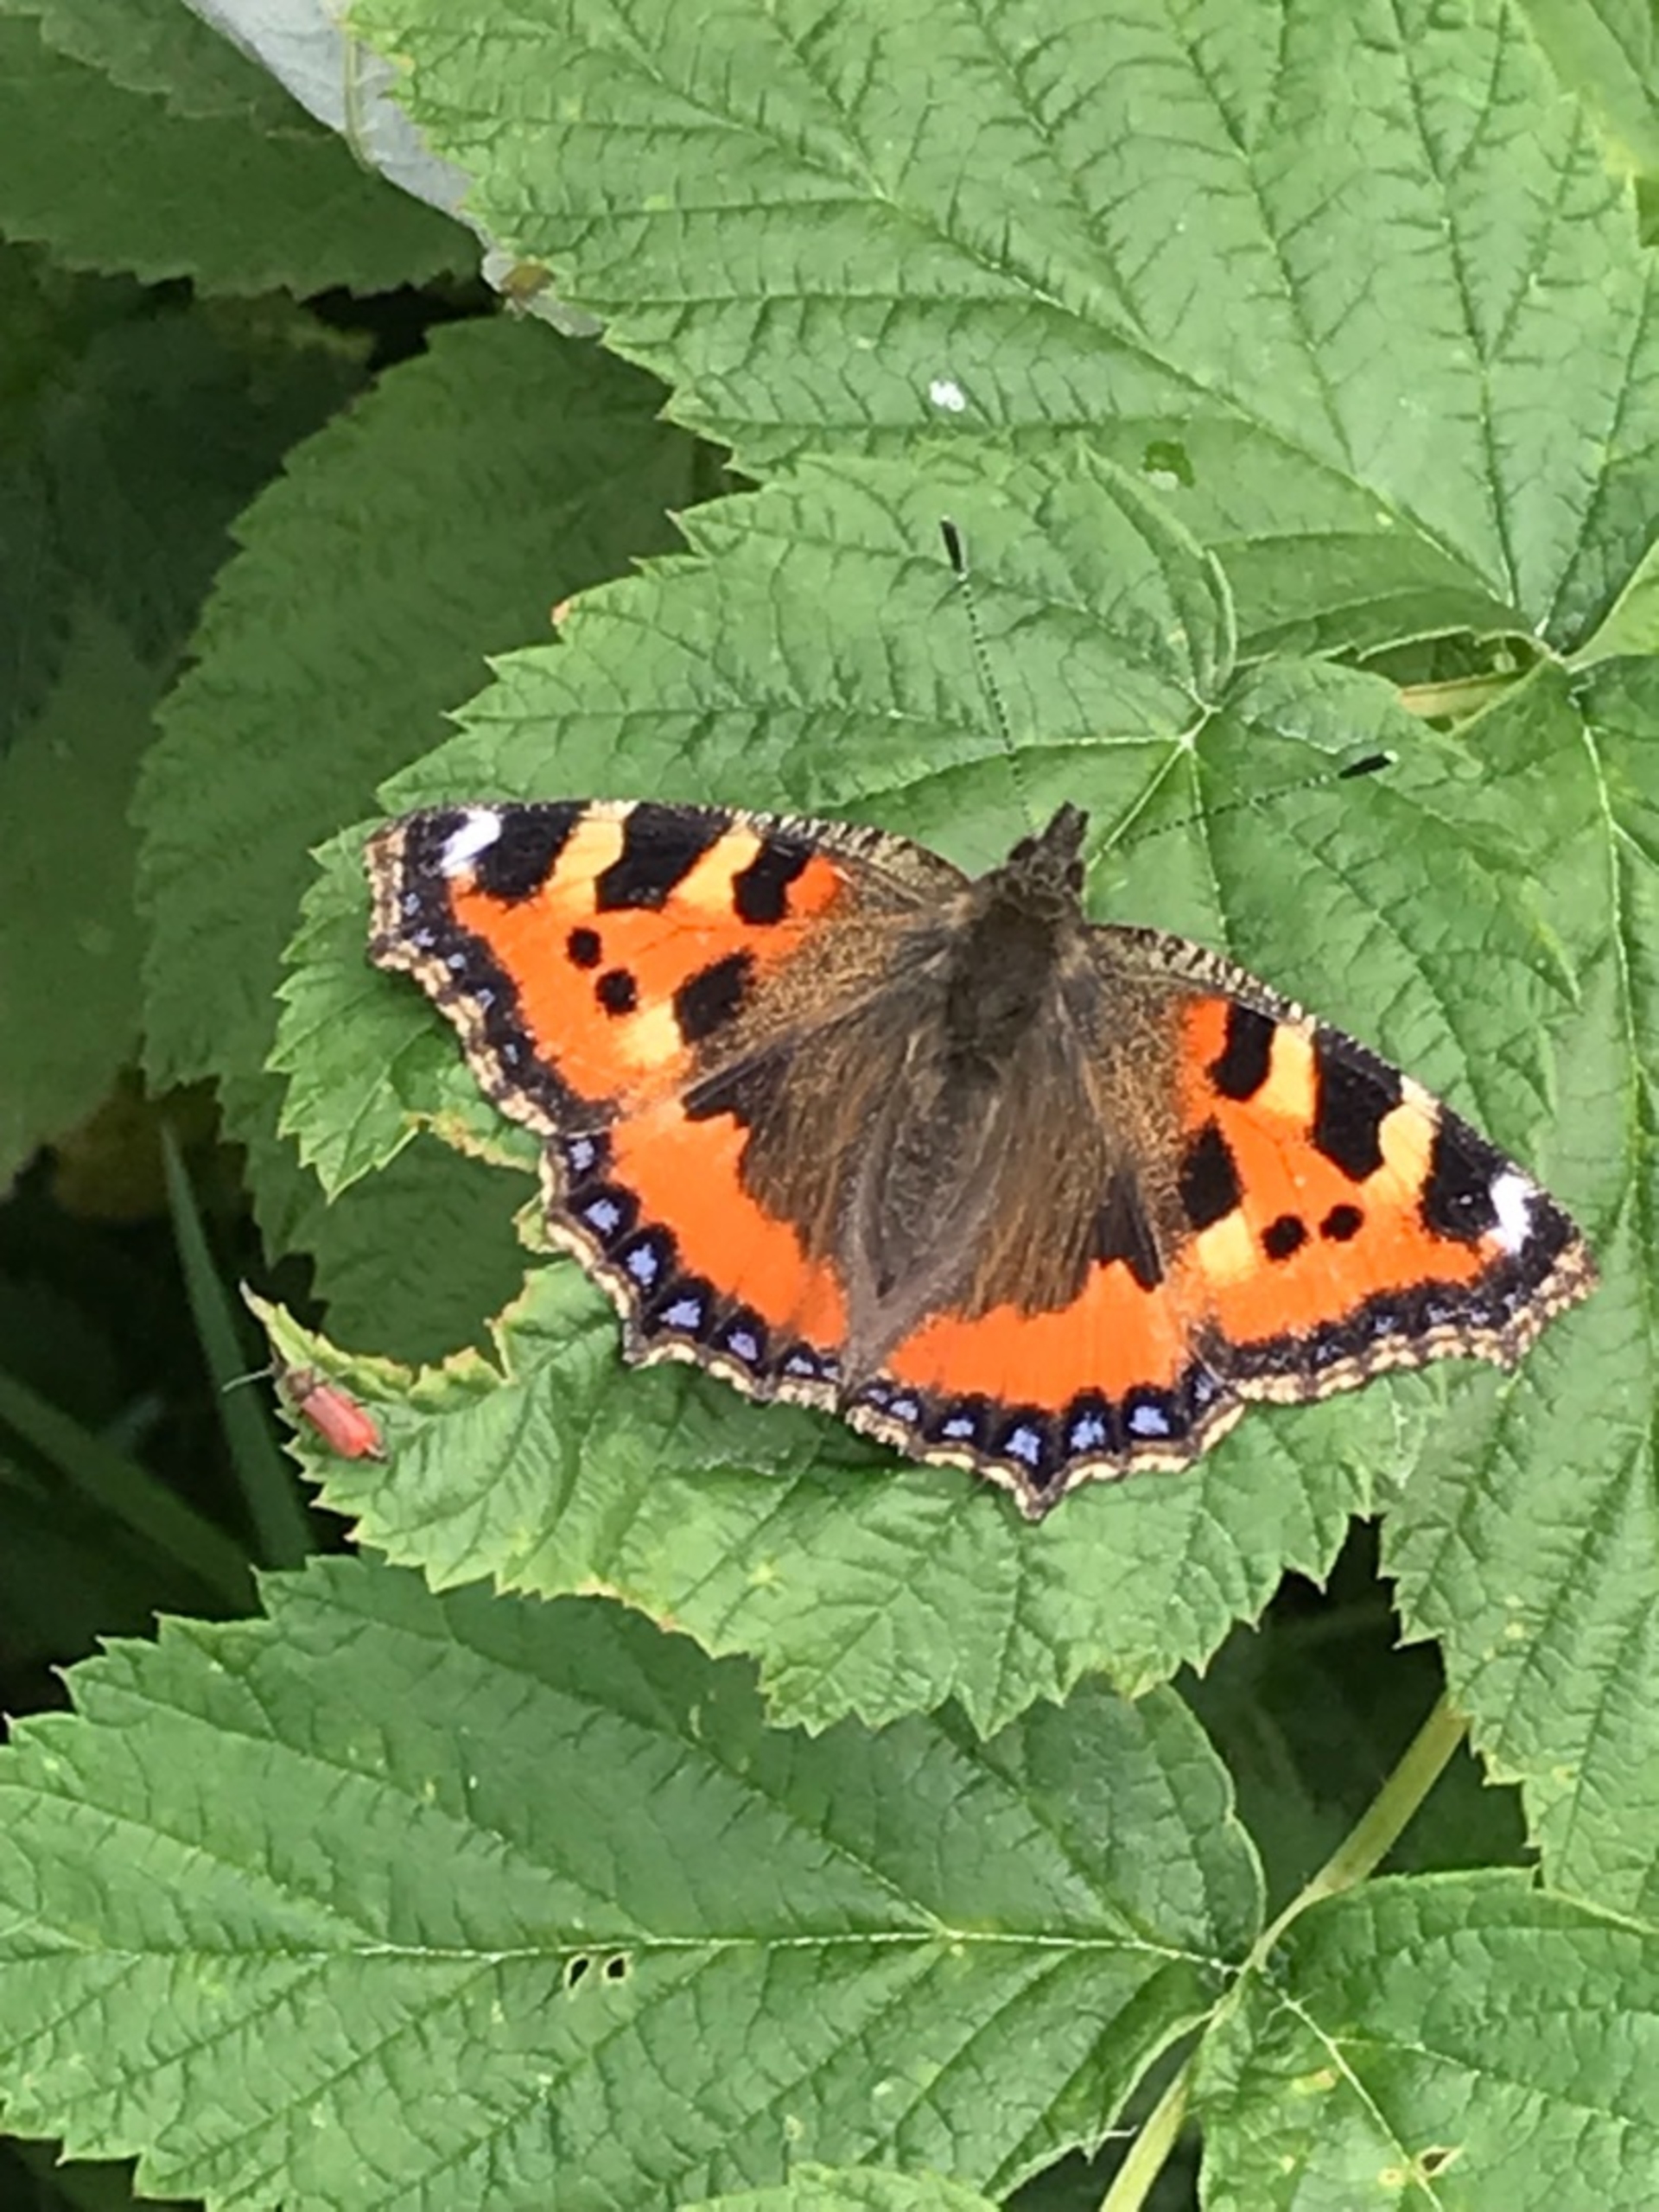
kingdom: Animalia
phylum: Arthropoda
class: Insecta
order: Lepidoptera
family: Nymphalidae
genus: Aglais
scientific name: Aglais urticae
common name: Nældens takvinge
